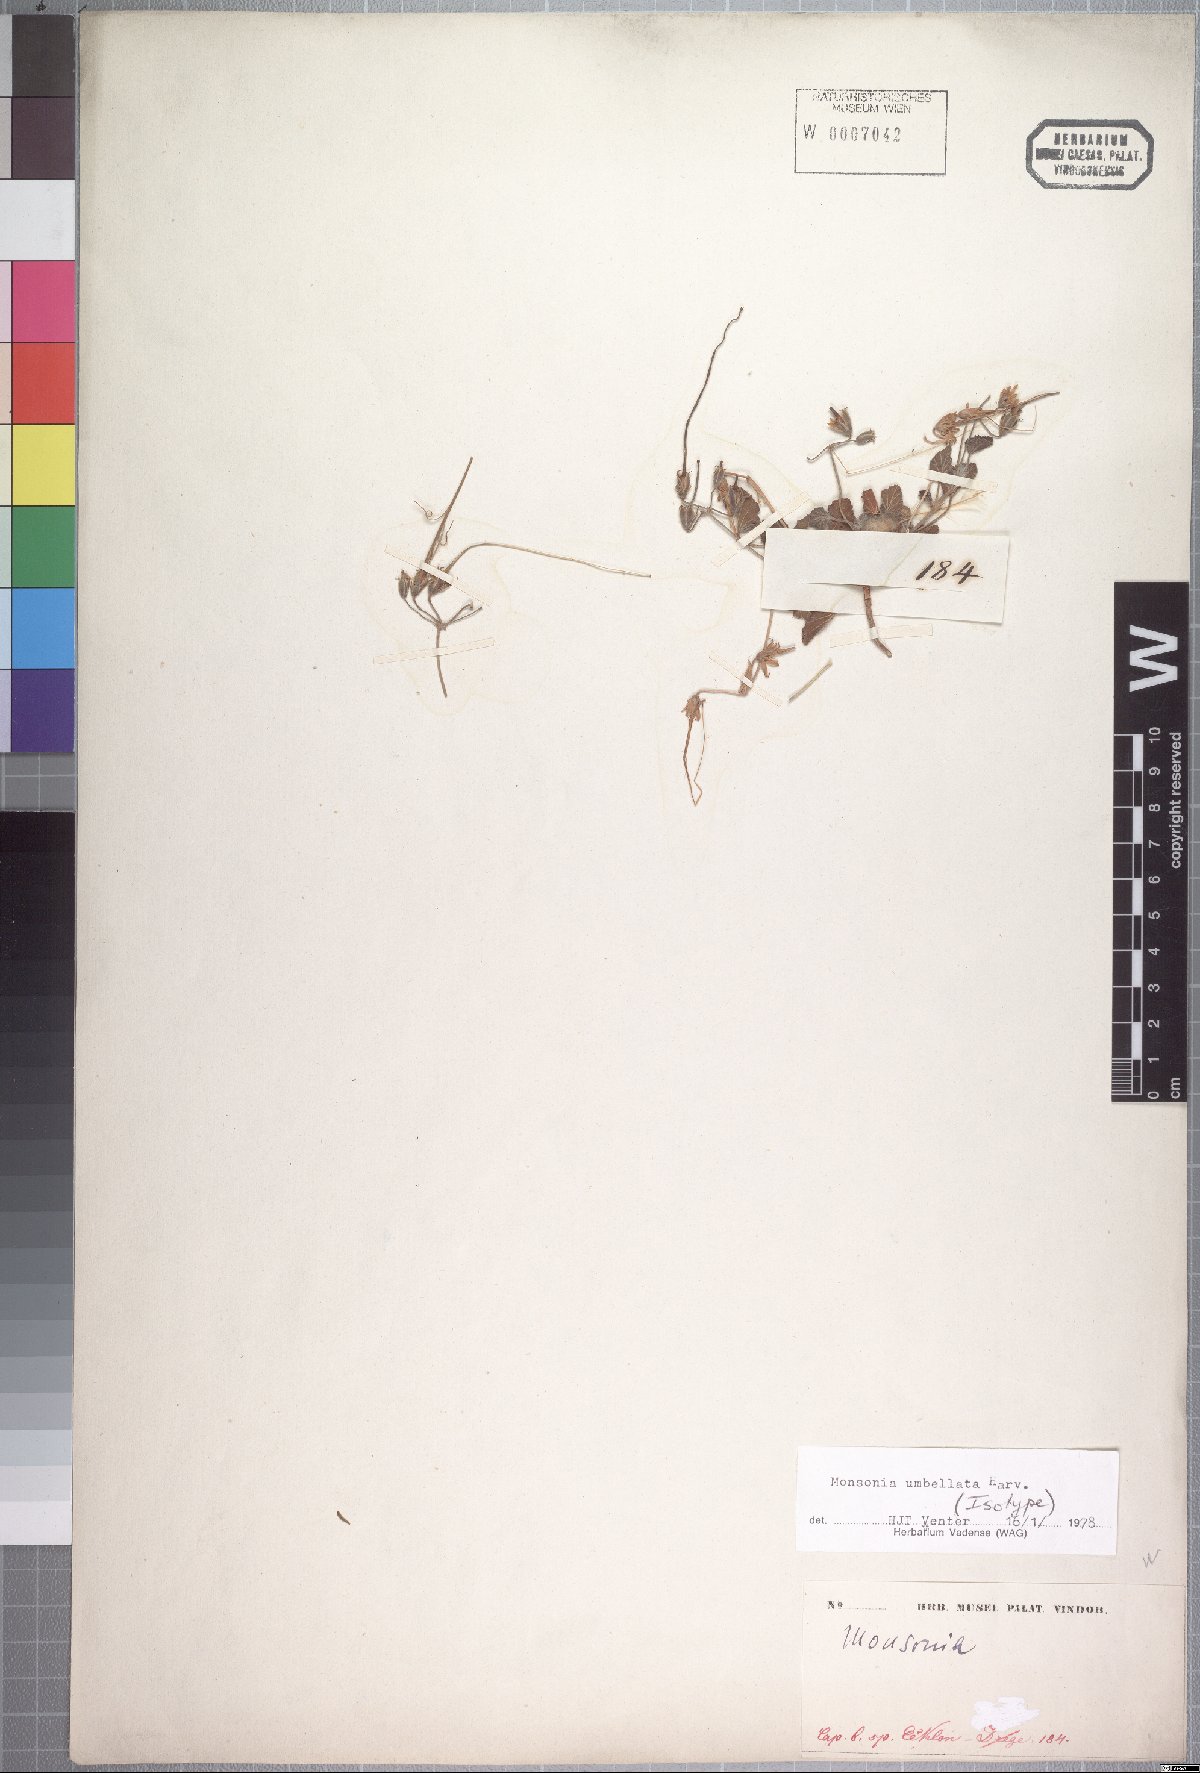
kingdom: Plantae
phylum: Tracheophyta
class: Magnoliopsida
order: Geraniales
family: Geraniaceae
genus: Monsonia
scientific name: Monsonia umbellata
